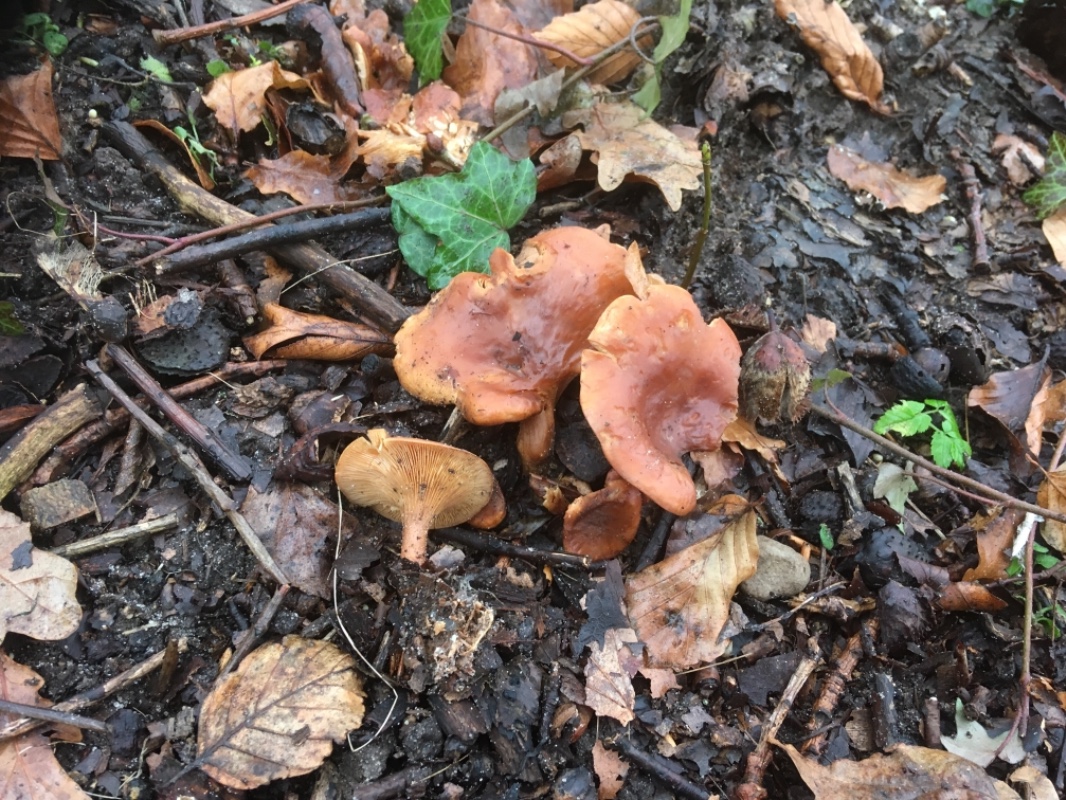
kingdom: Fungi
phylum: Basidiomycota
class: Agaricomycetes
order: Agaricales
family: Tricholomataceae
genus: Paralepista
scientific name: Paralepista flaccida
